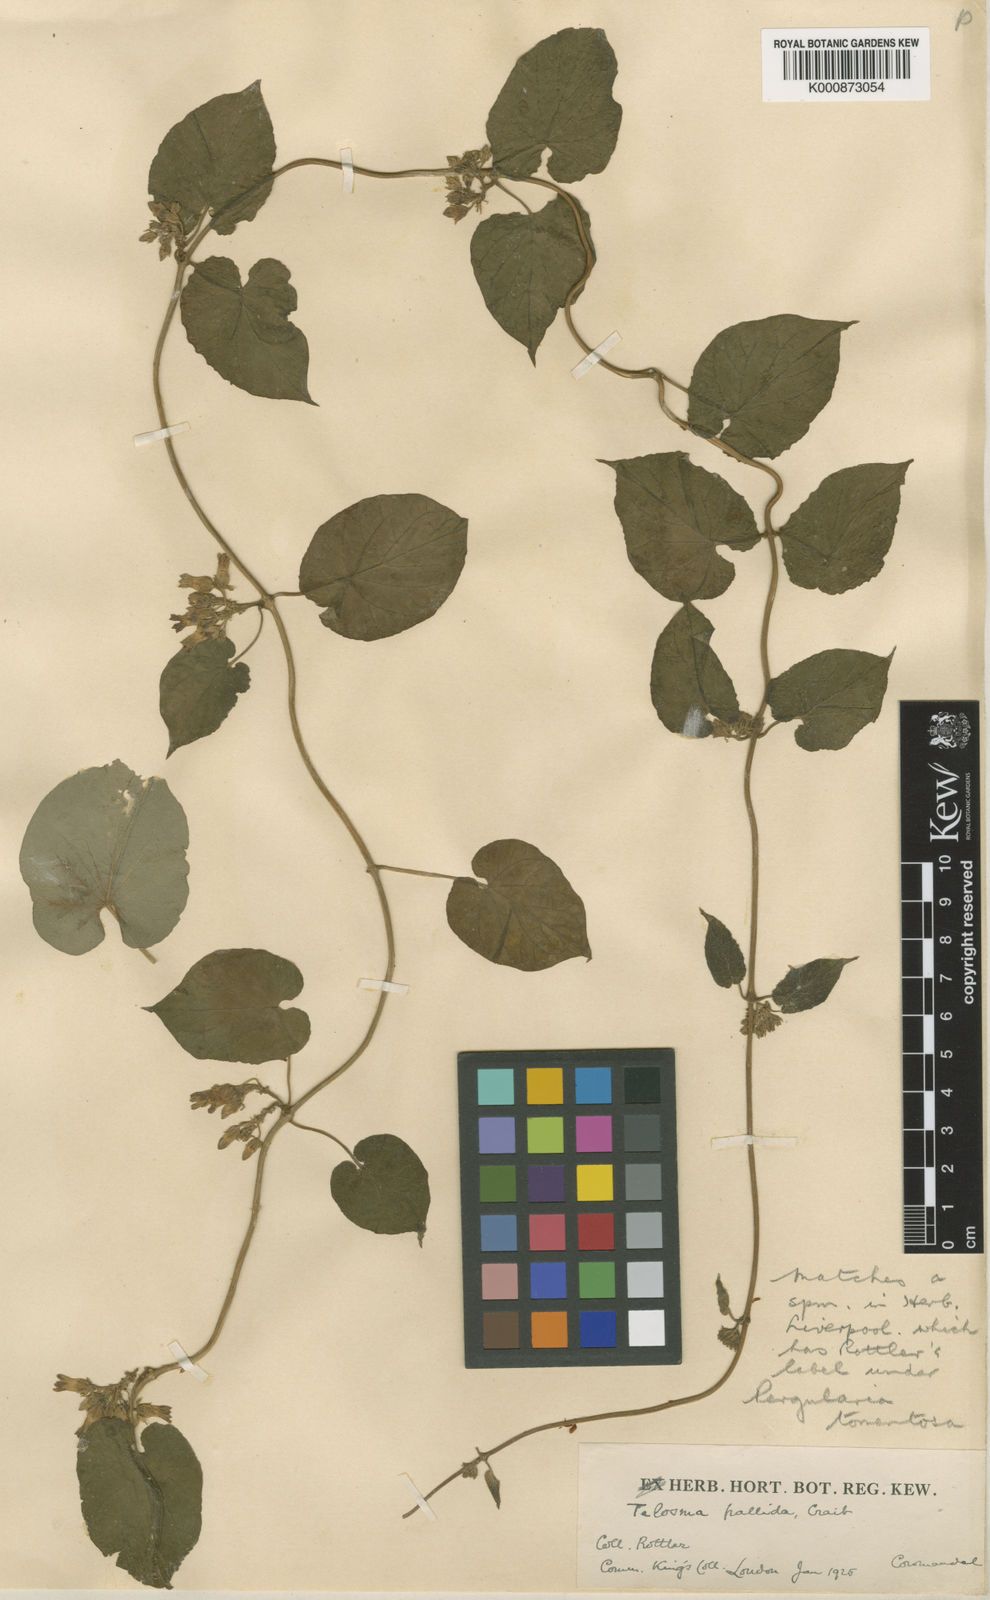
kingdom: Plantae
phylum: Tracheophyta
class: Magnoliopsida
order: Gentianales
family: Apocynaceae
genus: Telosma
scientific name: Telosma pallida
